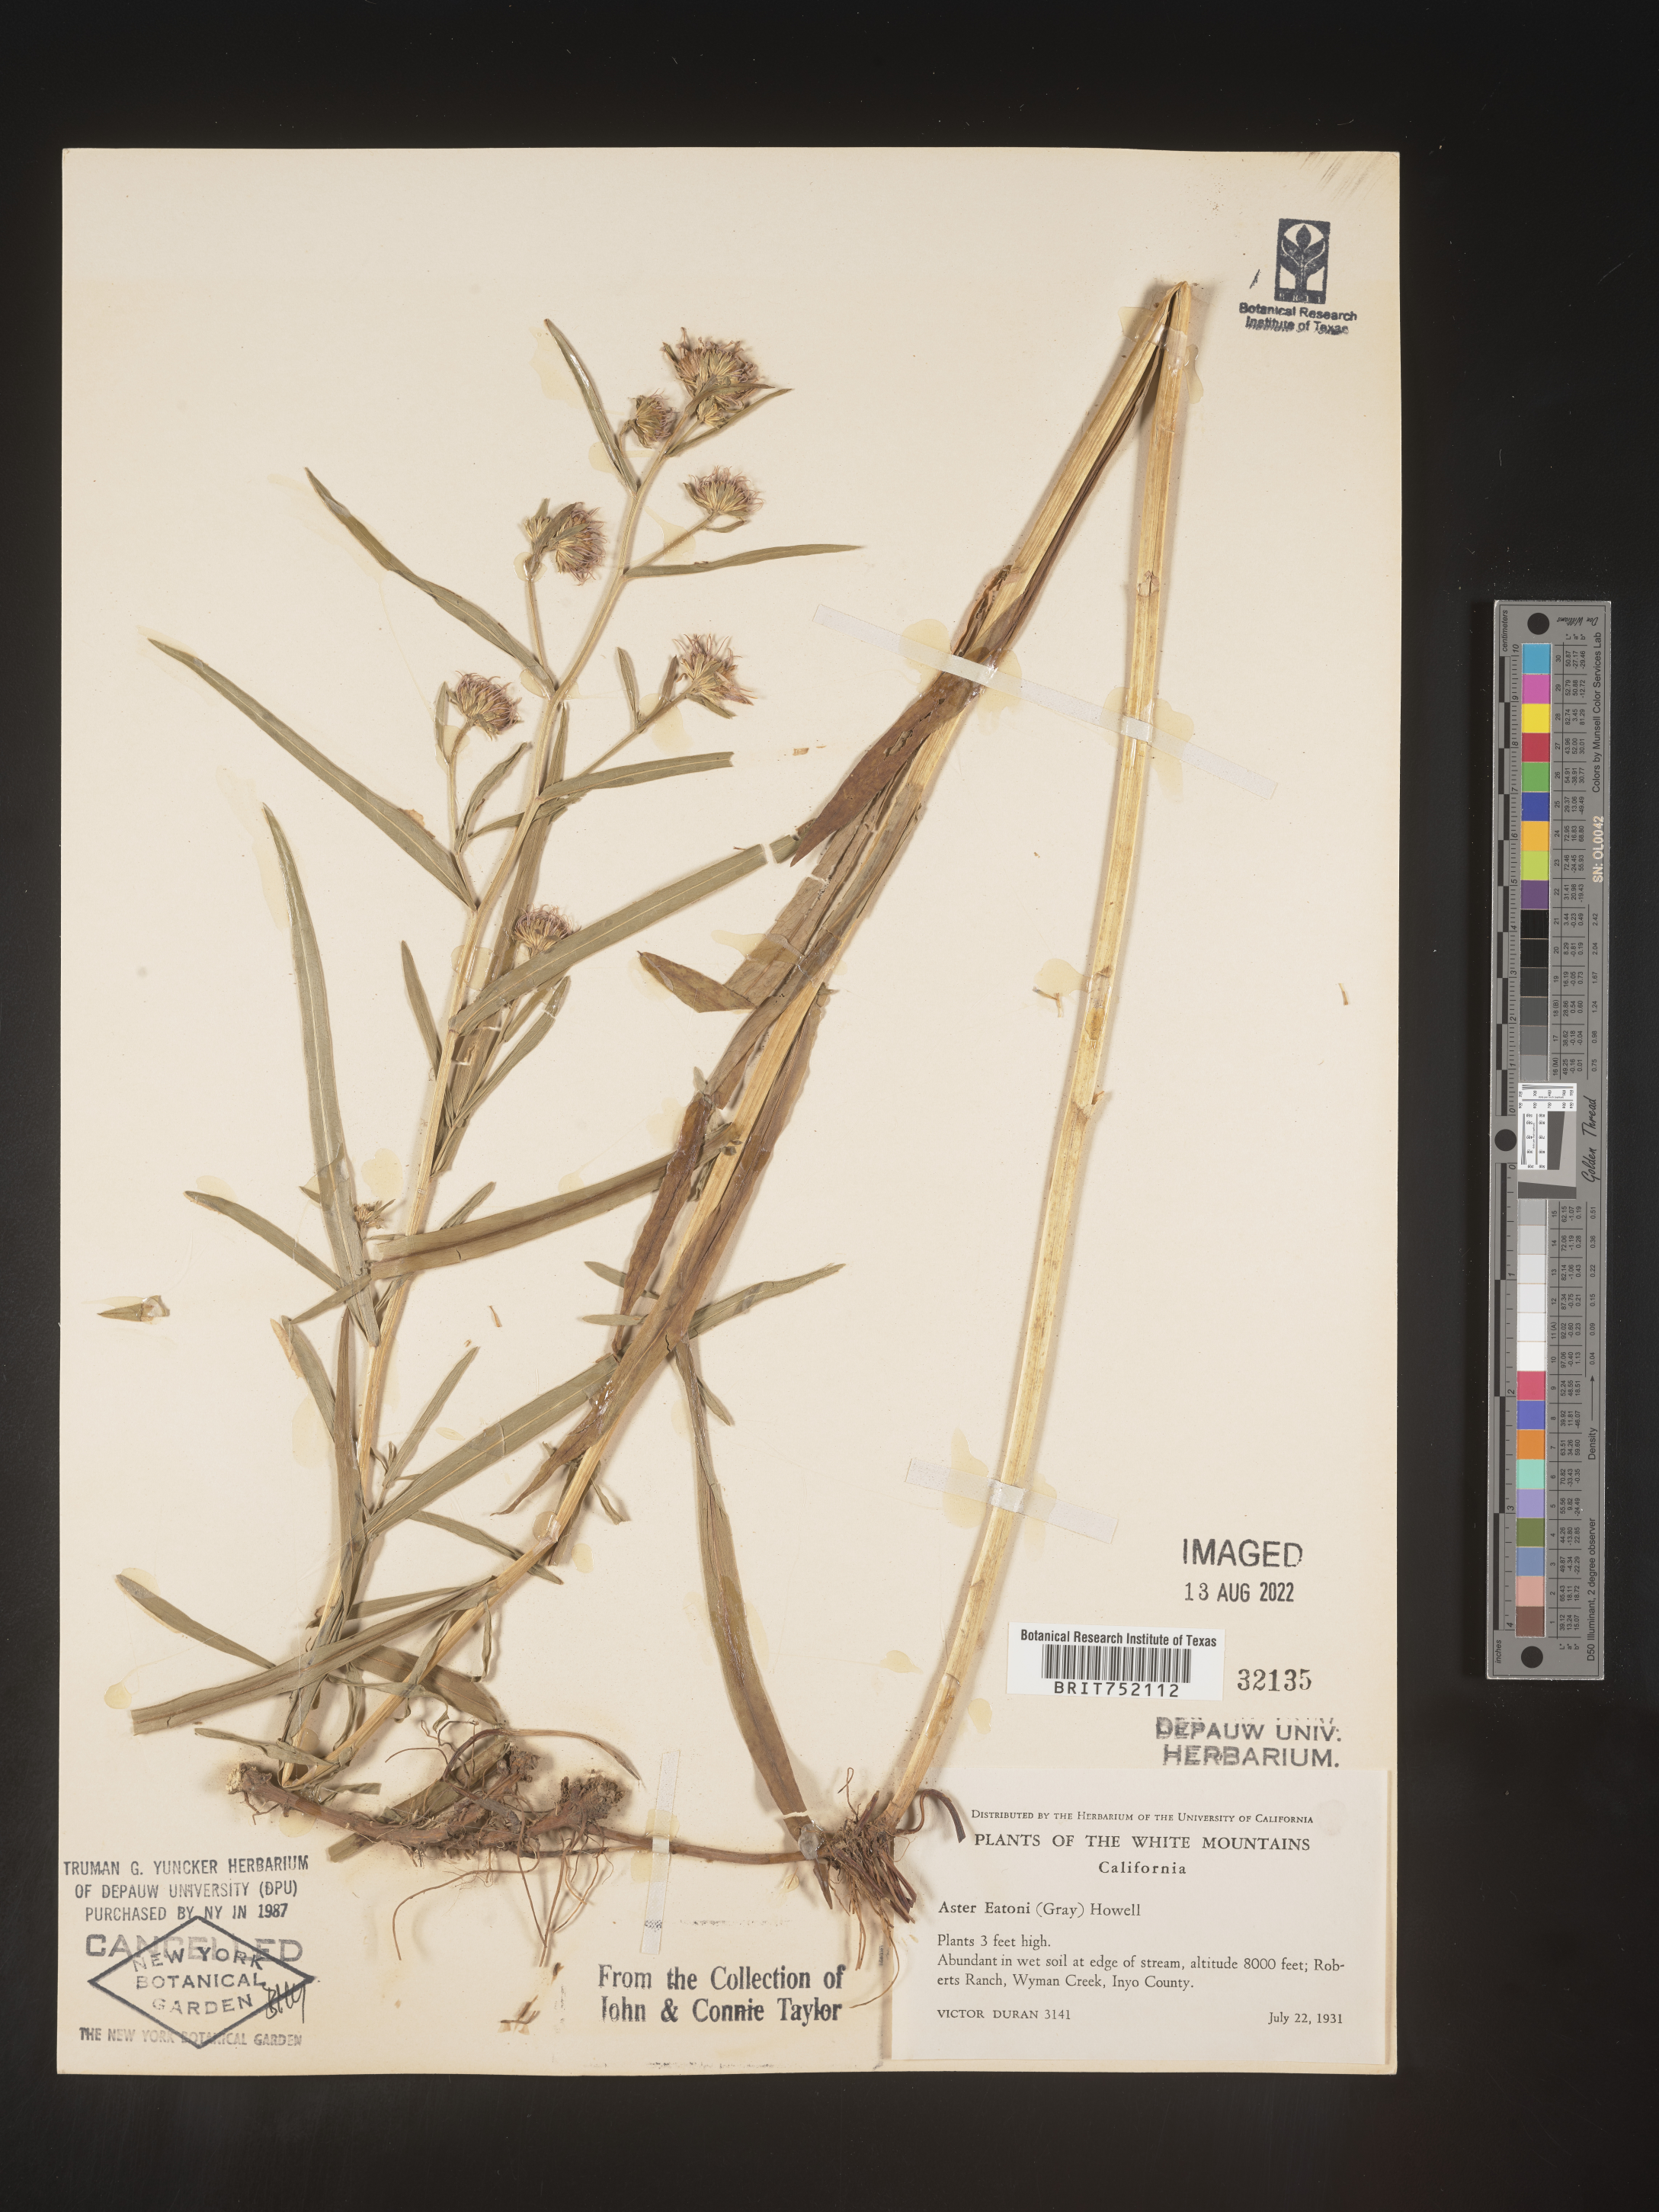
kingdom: Plantae
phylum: Tracheophyta
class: Magnoliopsida
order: Asterales
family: Asteraceae
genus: Symphyotrichum
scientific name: Symphyotrichum bracteolatum
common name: Eaton's aster
